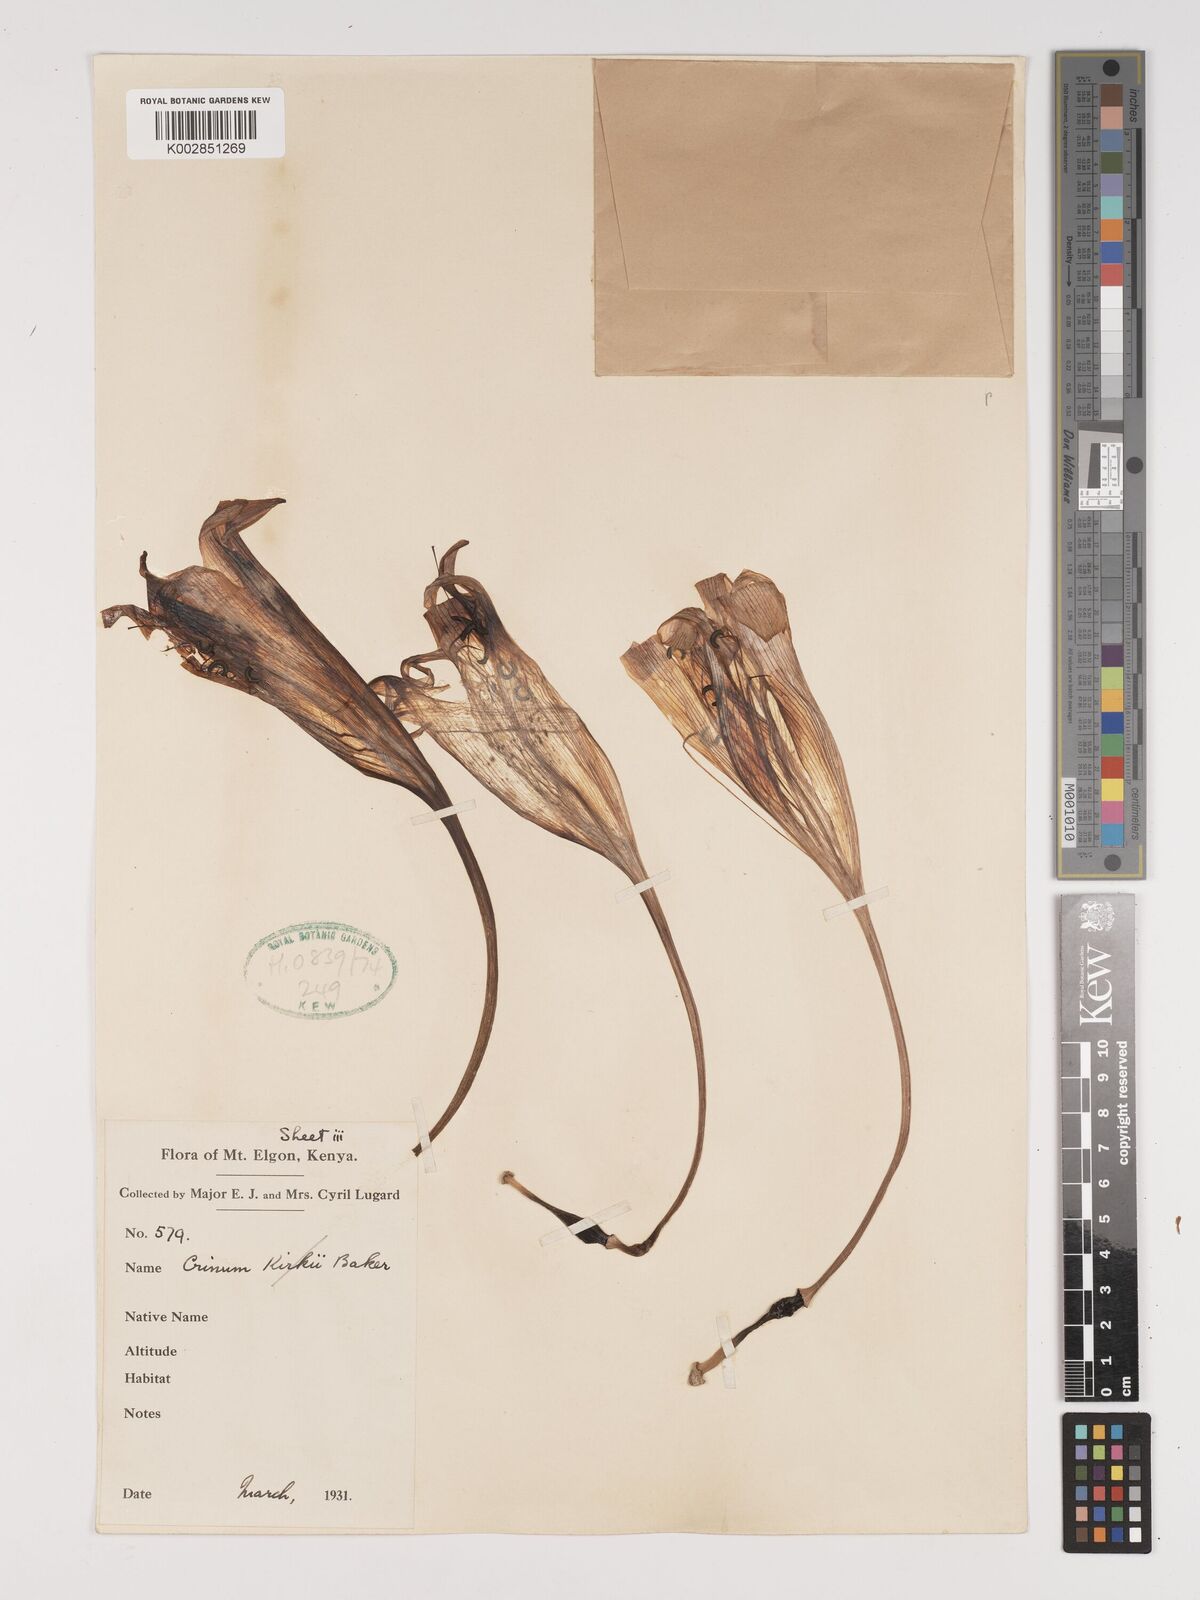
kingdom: Plantae
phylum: Tracheophyta
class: Liliopsida
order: Asparagales
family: Amaryllidaceae
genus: Crinum
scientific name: Crinum macowanii
